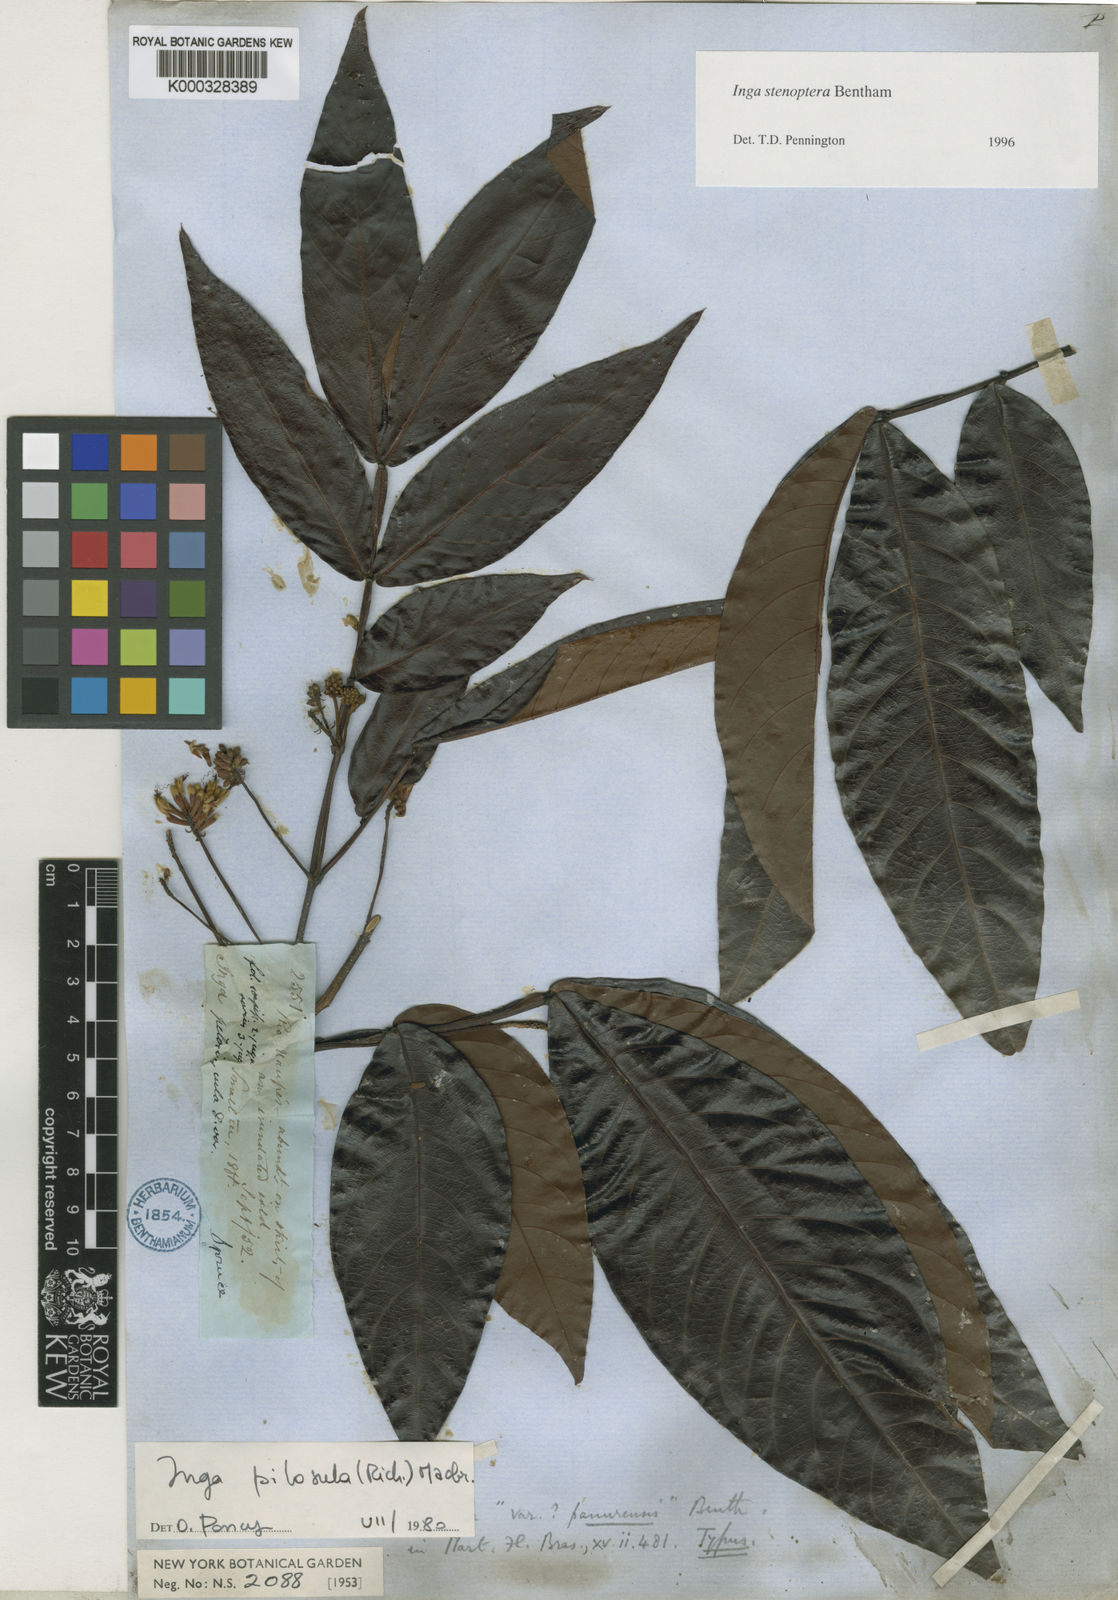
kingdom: Plantae
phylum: Tracheophyta
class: Magnoliopsida
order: Fabales
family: Fabaceae
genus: Inga
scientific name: Inga stenoptera
